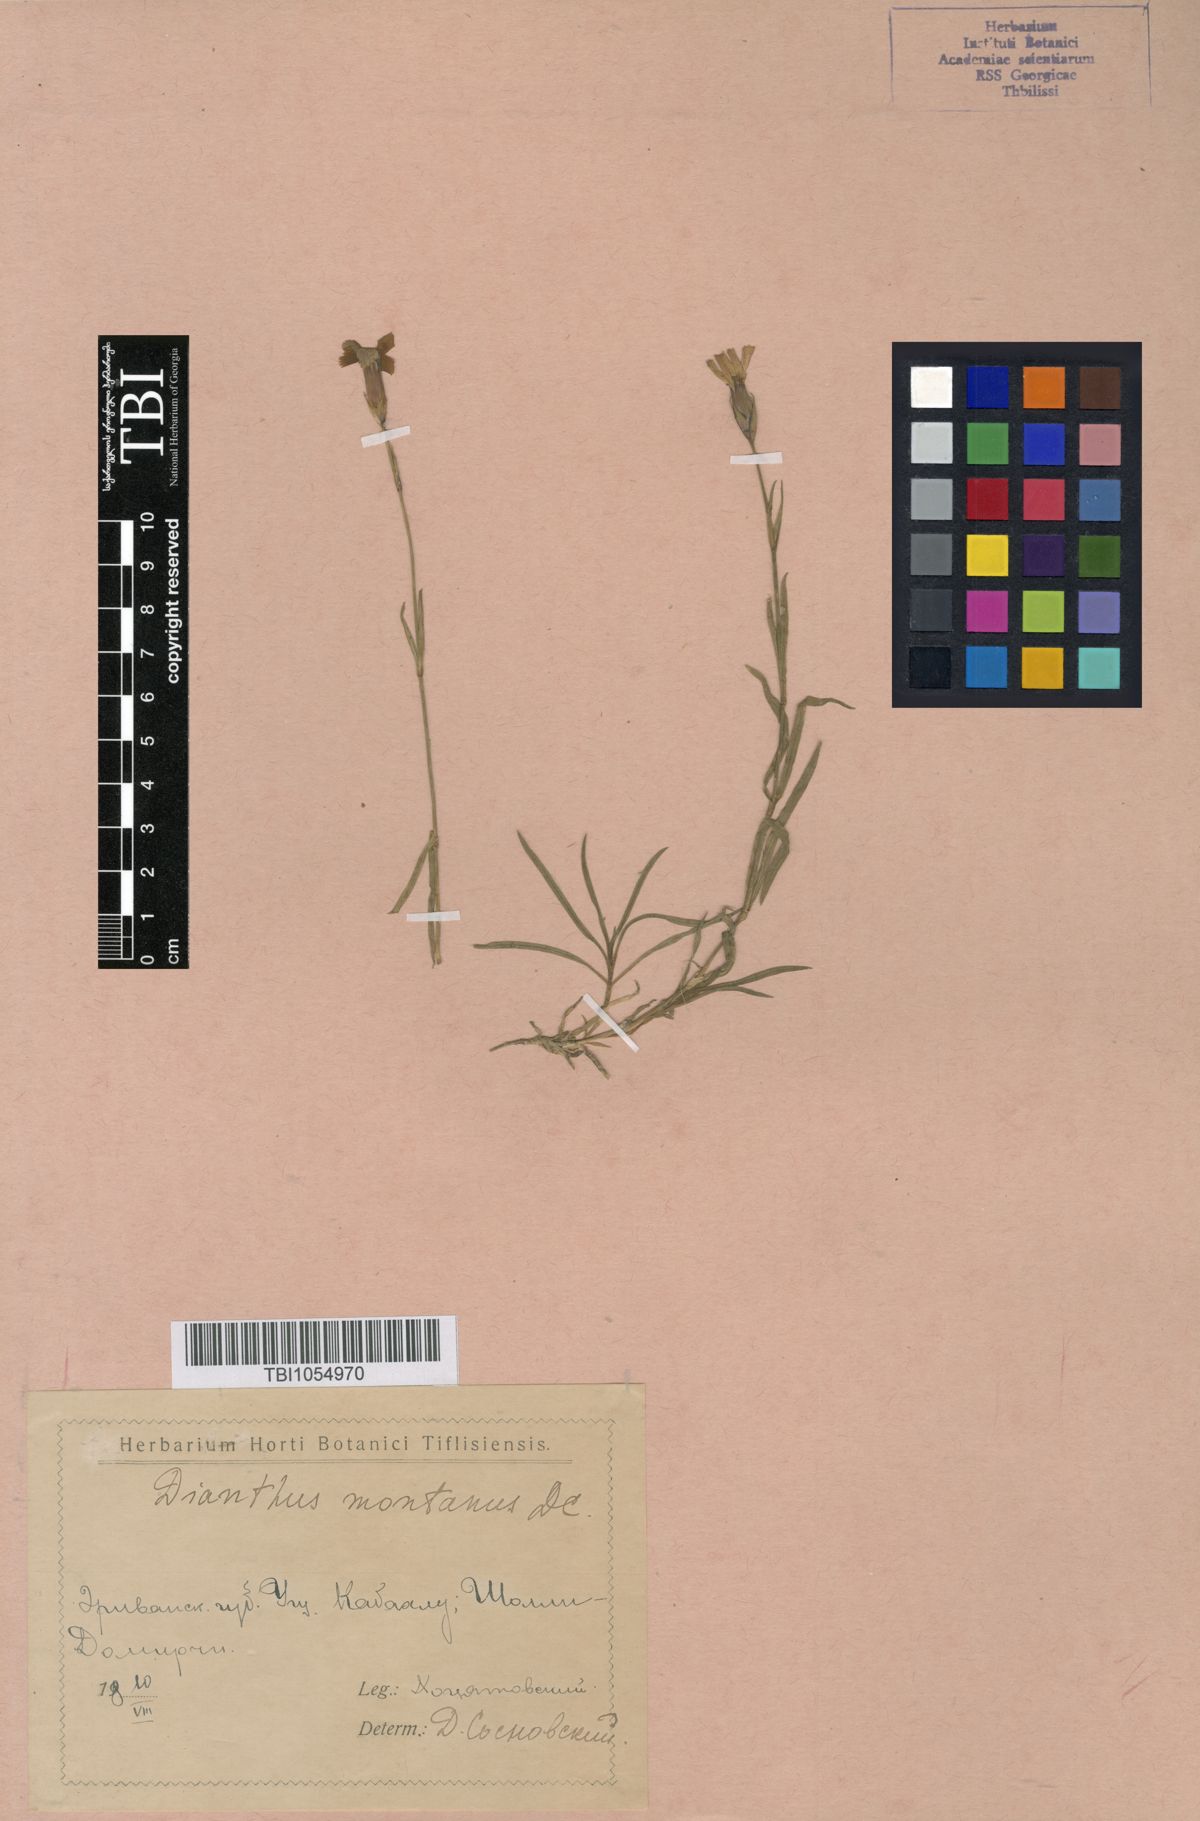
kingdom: Plantae
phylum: Tracheophyta
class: Magnoliopsida
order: Caryophyllales
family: Caryophyllaceae
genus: Dianthus
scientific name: Dianthus caucaseus
